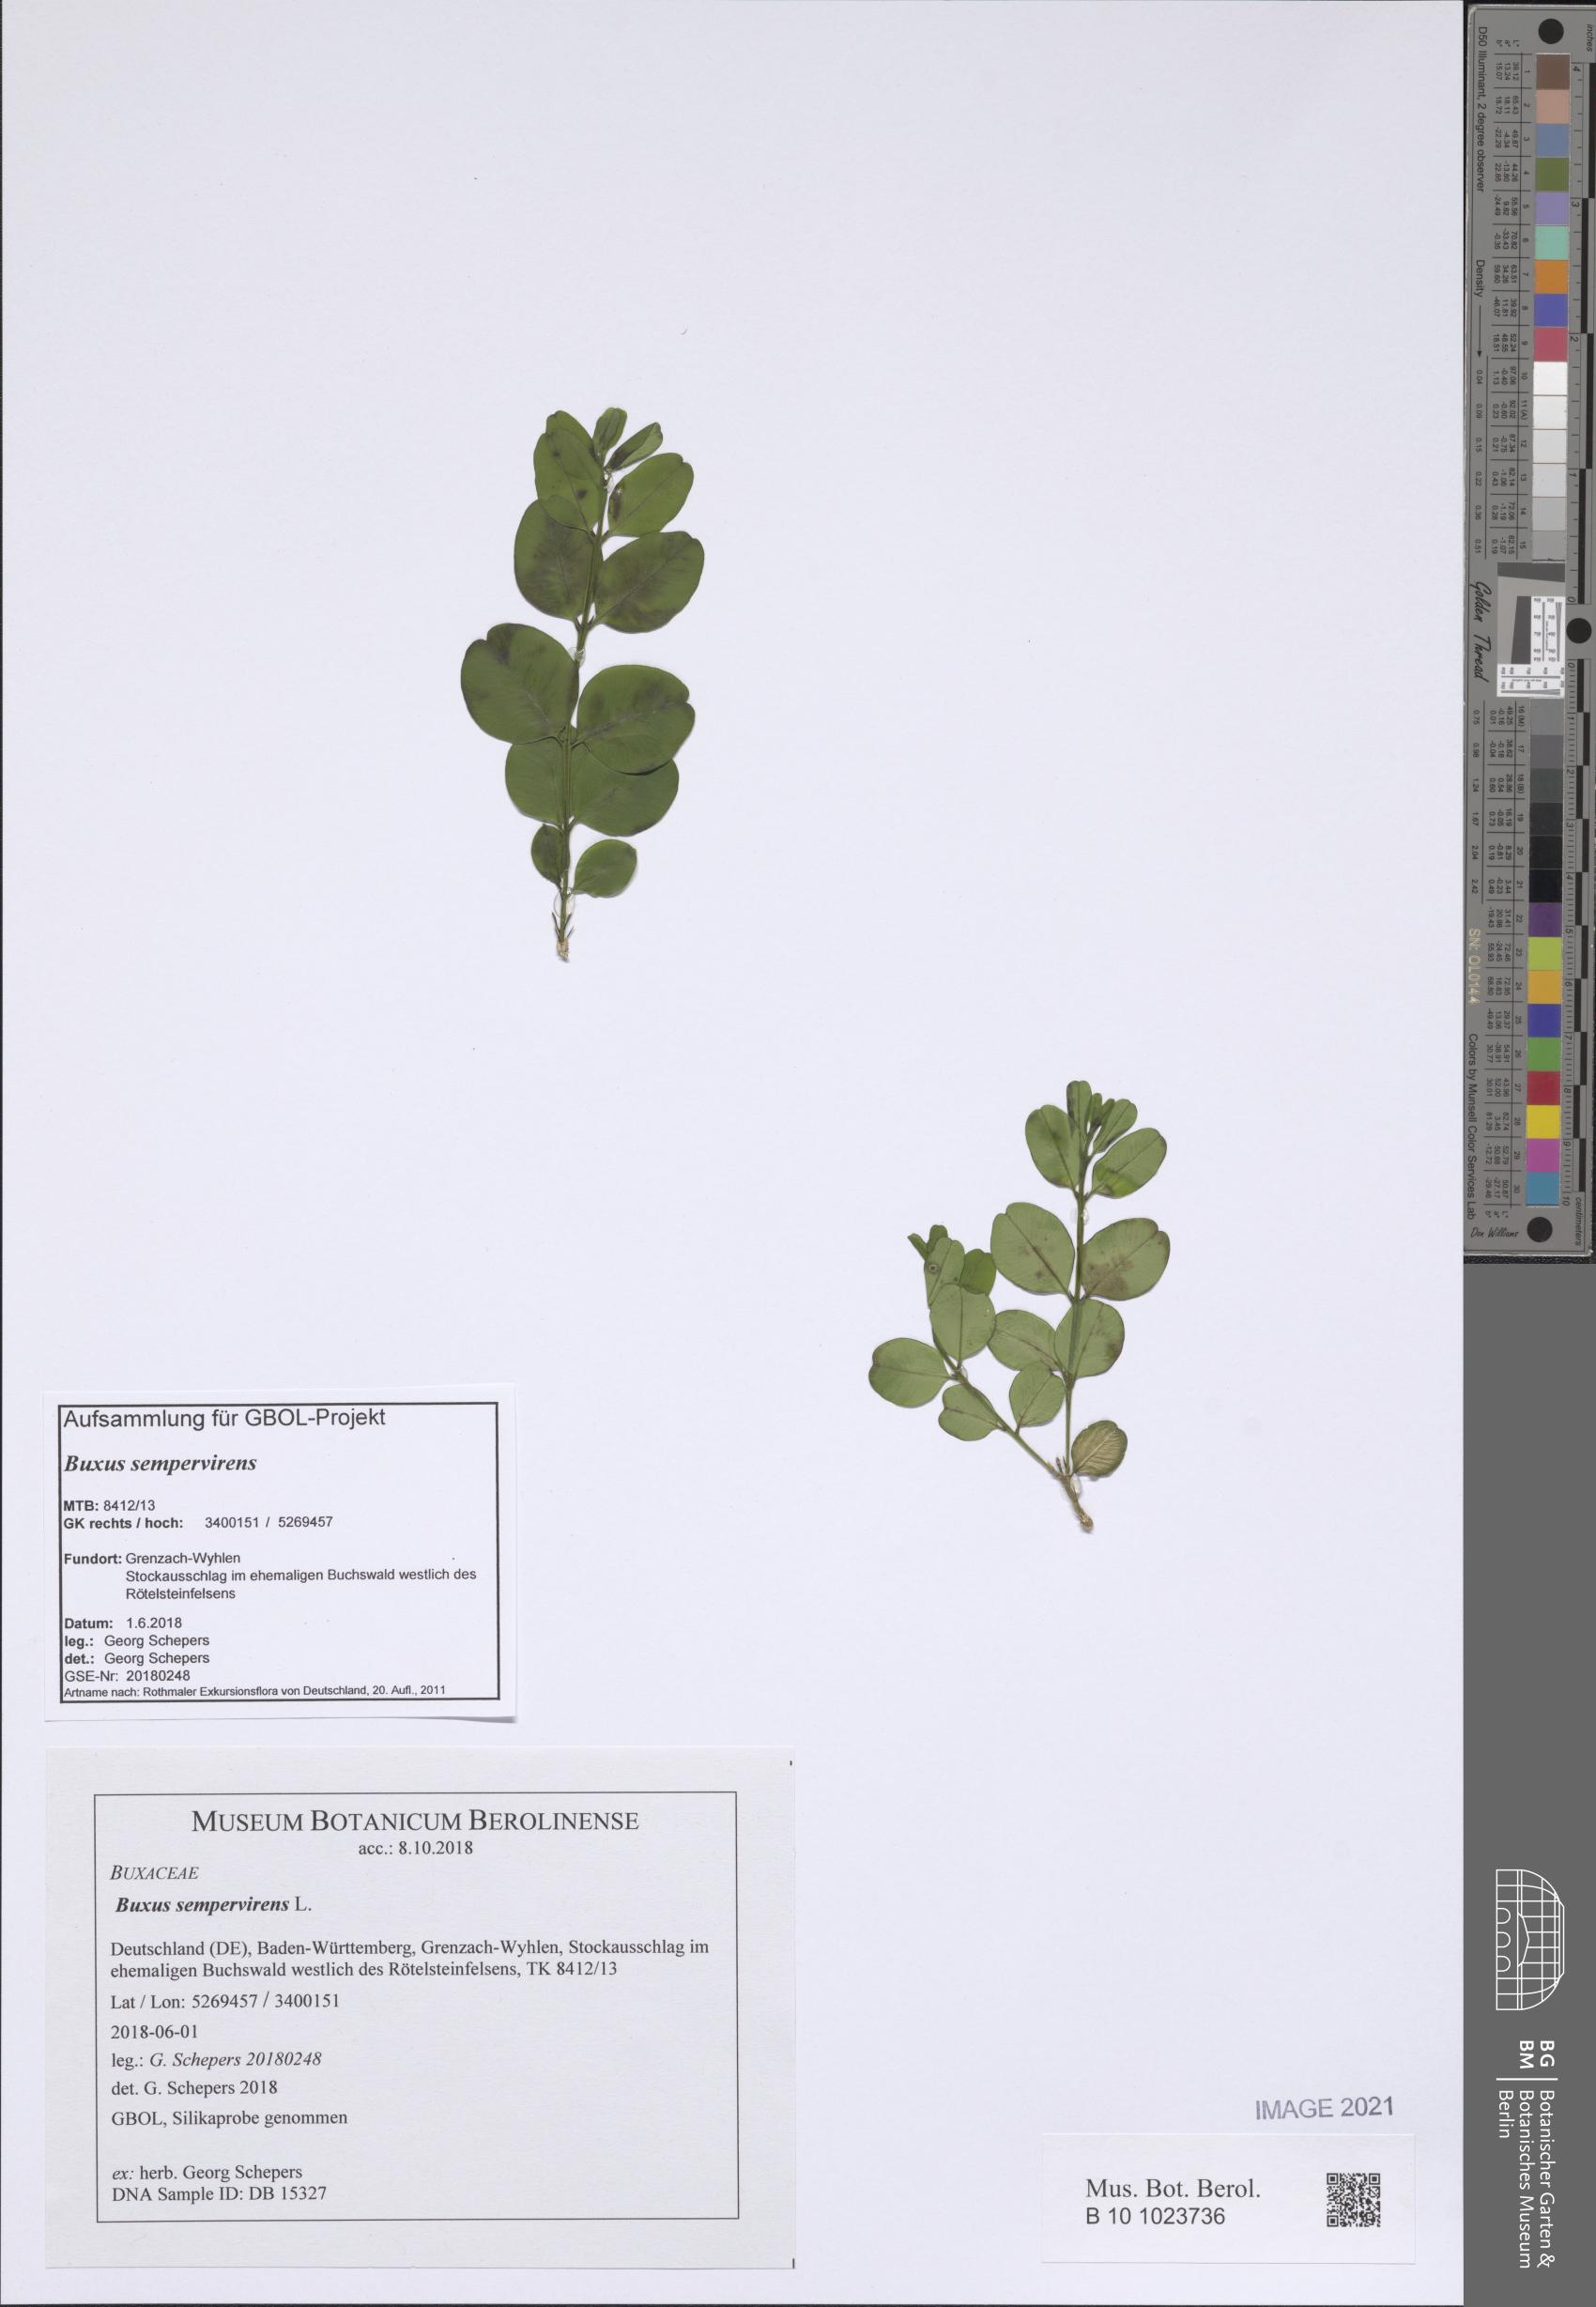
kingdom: Plantae
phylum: Tracheophyta
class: Magnoliopsida
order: Buxales
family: Buxaceae
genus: Buxus
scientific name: Buxus sempervirens
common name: Box
